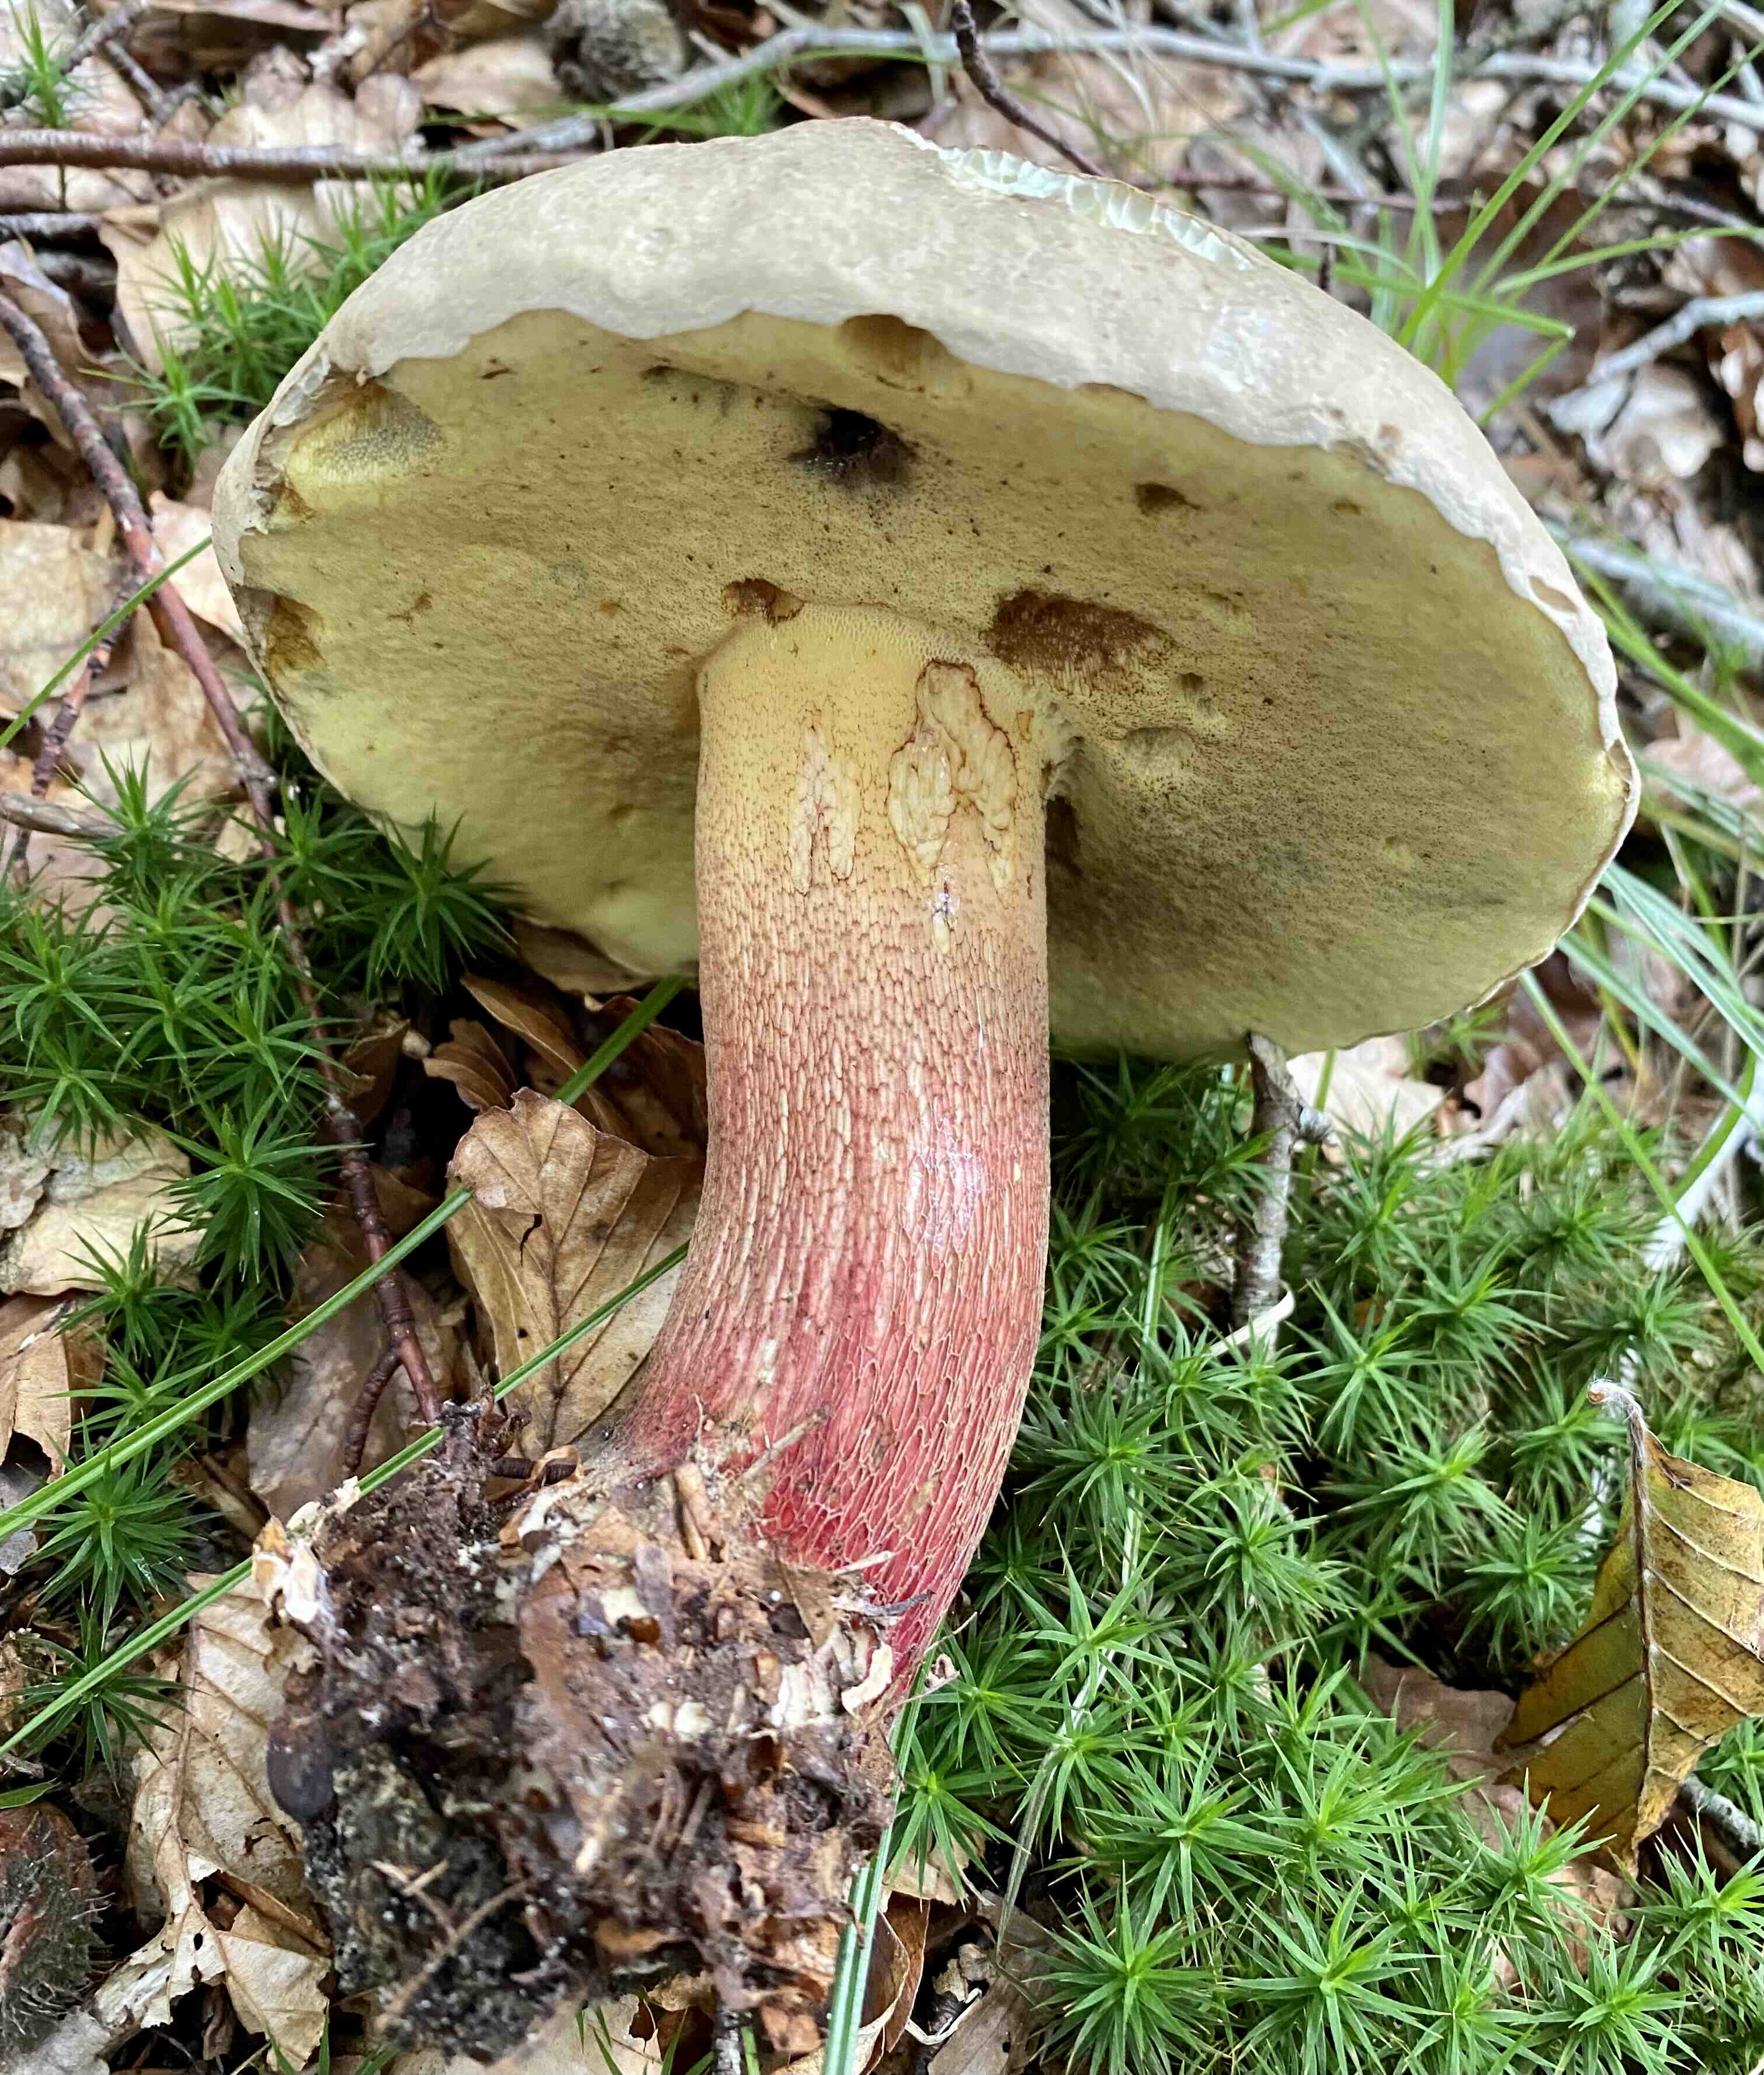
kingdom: Fungi
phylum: Basidiomycota
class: Agaricomycetes
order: Boletales
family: Boletaceae
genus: Caloboletus
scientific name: Caloboletus calopus
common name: skønfodet rørhat
